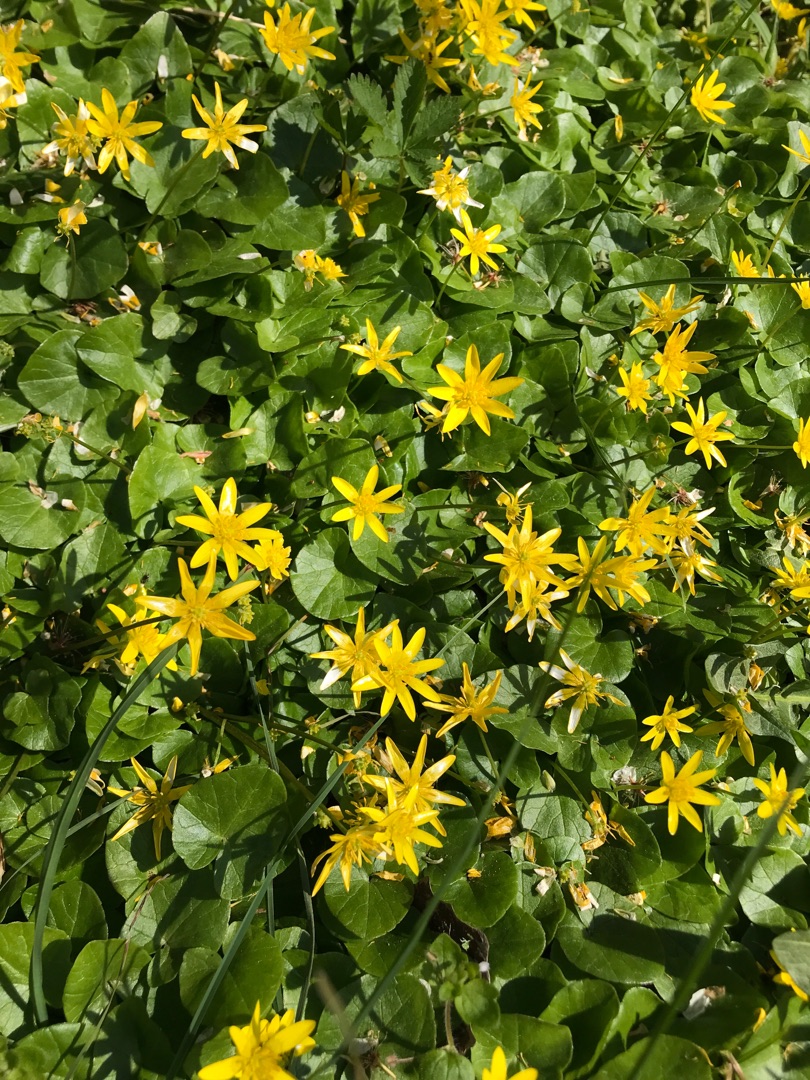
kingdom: Plantae
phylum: Tracheophyta
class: Magnoliopsida
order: Ranunculales
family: Ranunculaceae
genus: Ficaria
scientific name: Ficaria verna
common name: Vorterod
